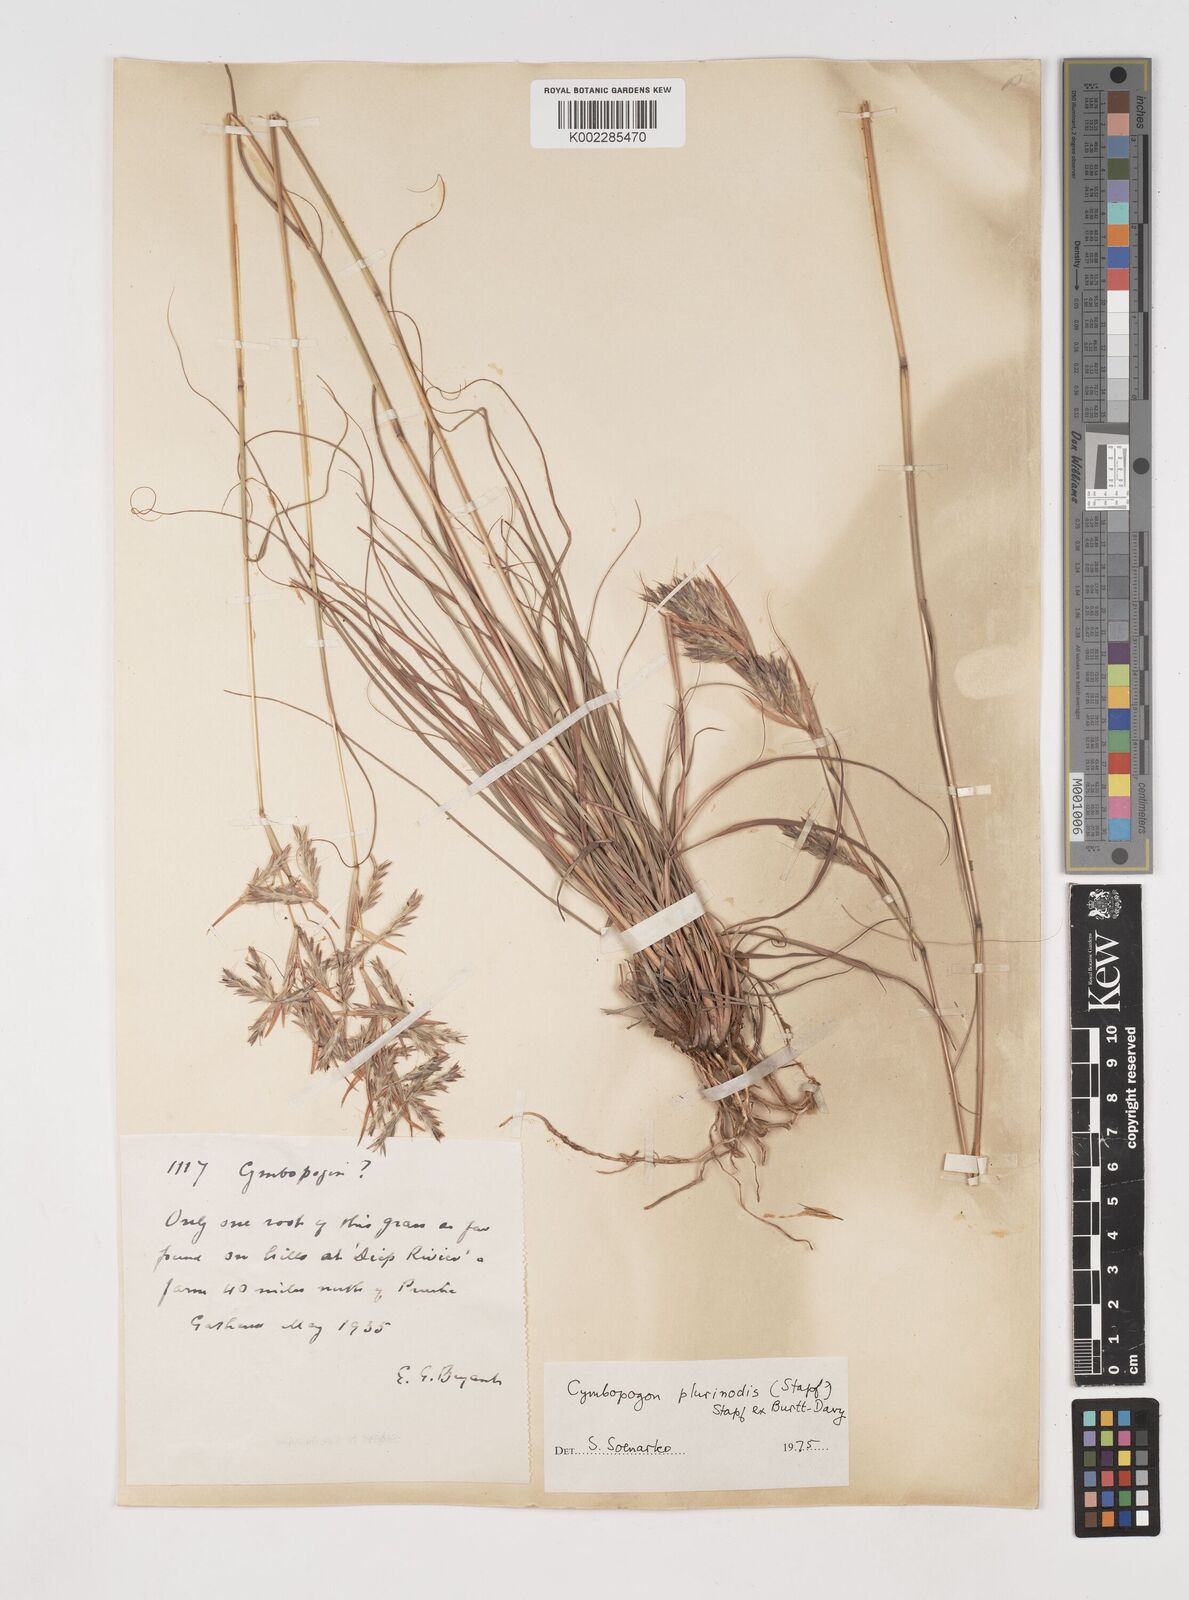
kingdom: Plantae
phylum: Tracheophyta
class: Liliopsida
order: Poales
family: Poaceae
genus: Cymbopogon
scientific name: Cymbopogon pospischilii
